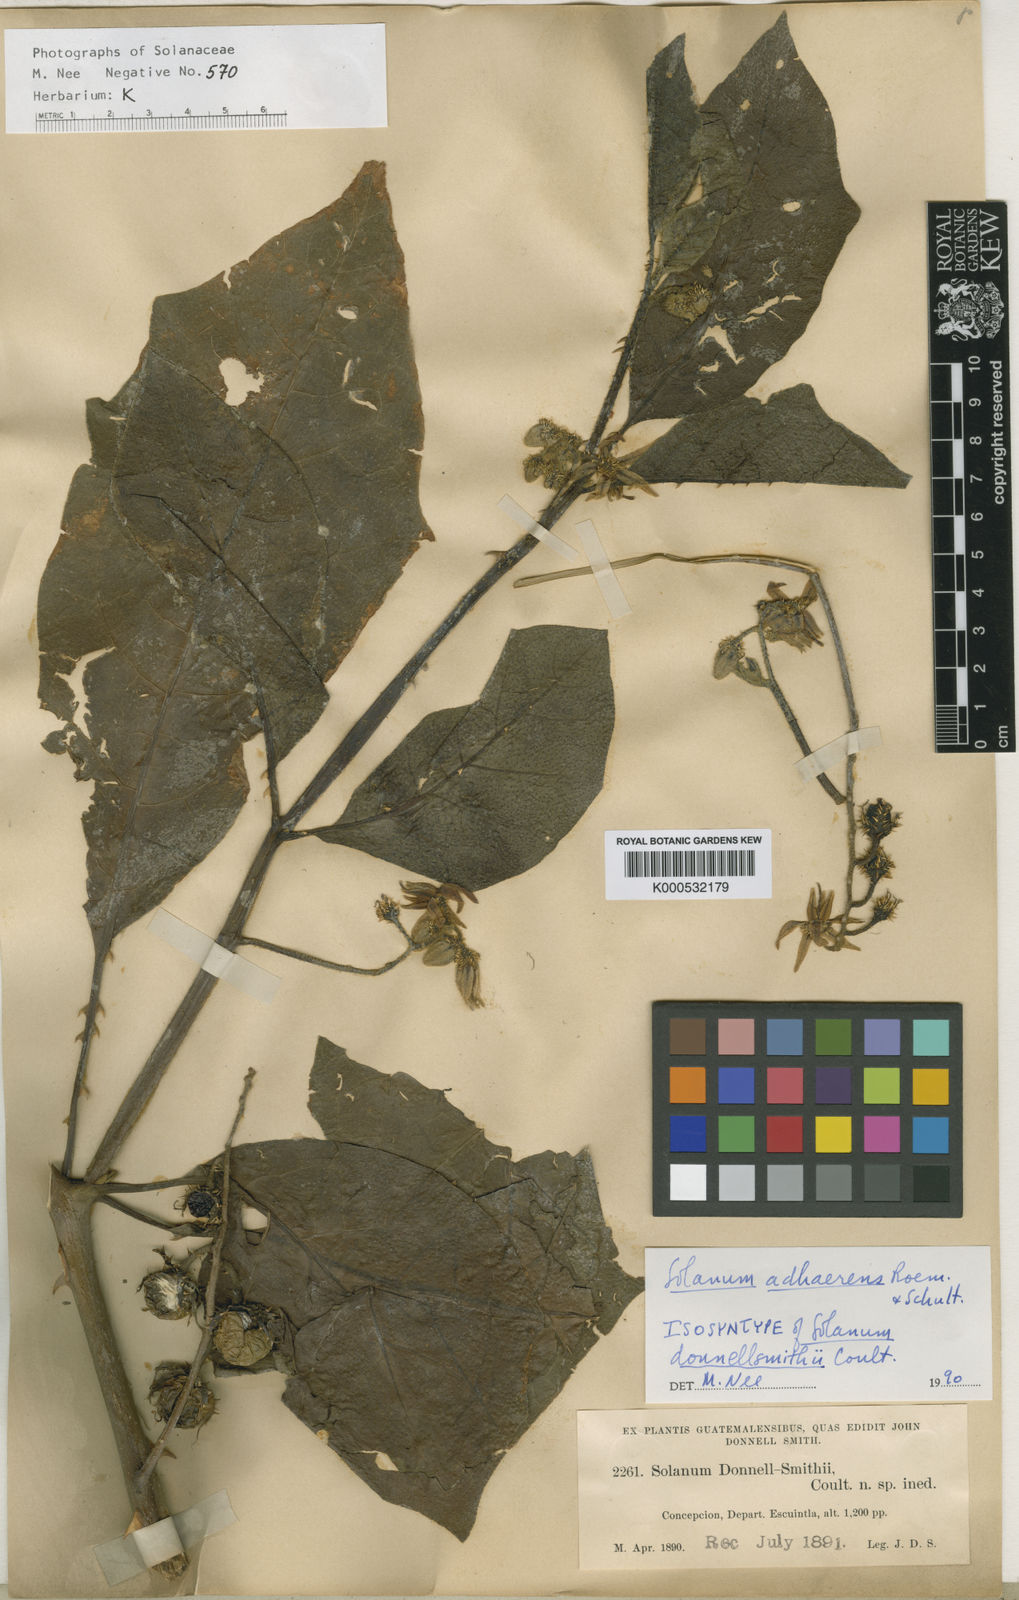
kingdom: Plantae
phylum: Tracheophyta
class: Magnoliopsida
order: Solanales
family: Solanaceae
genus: Solanum
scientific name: Solanum
